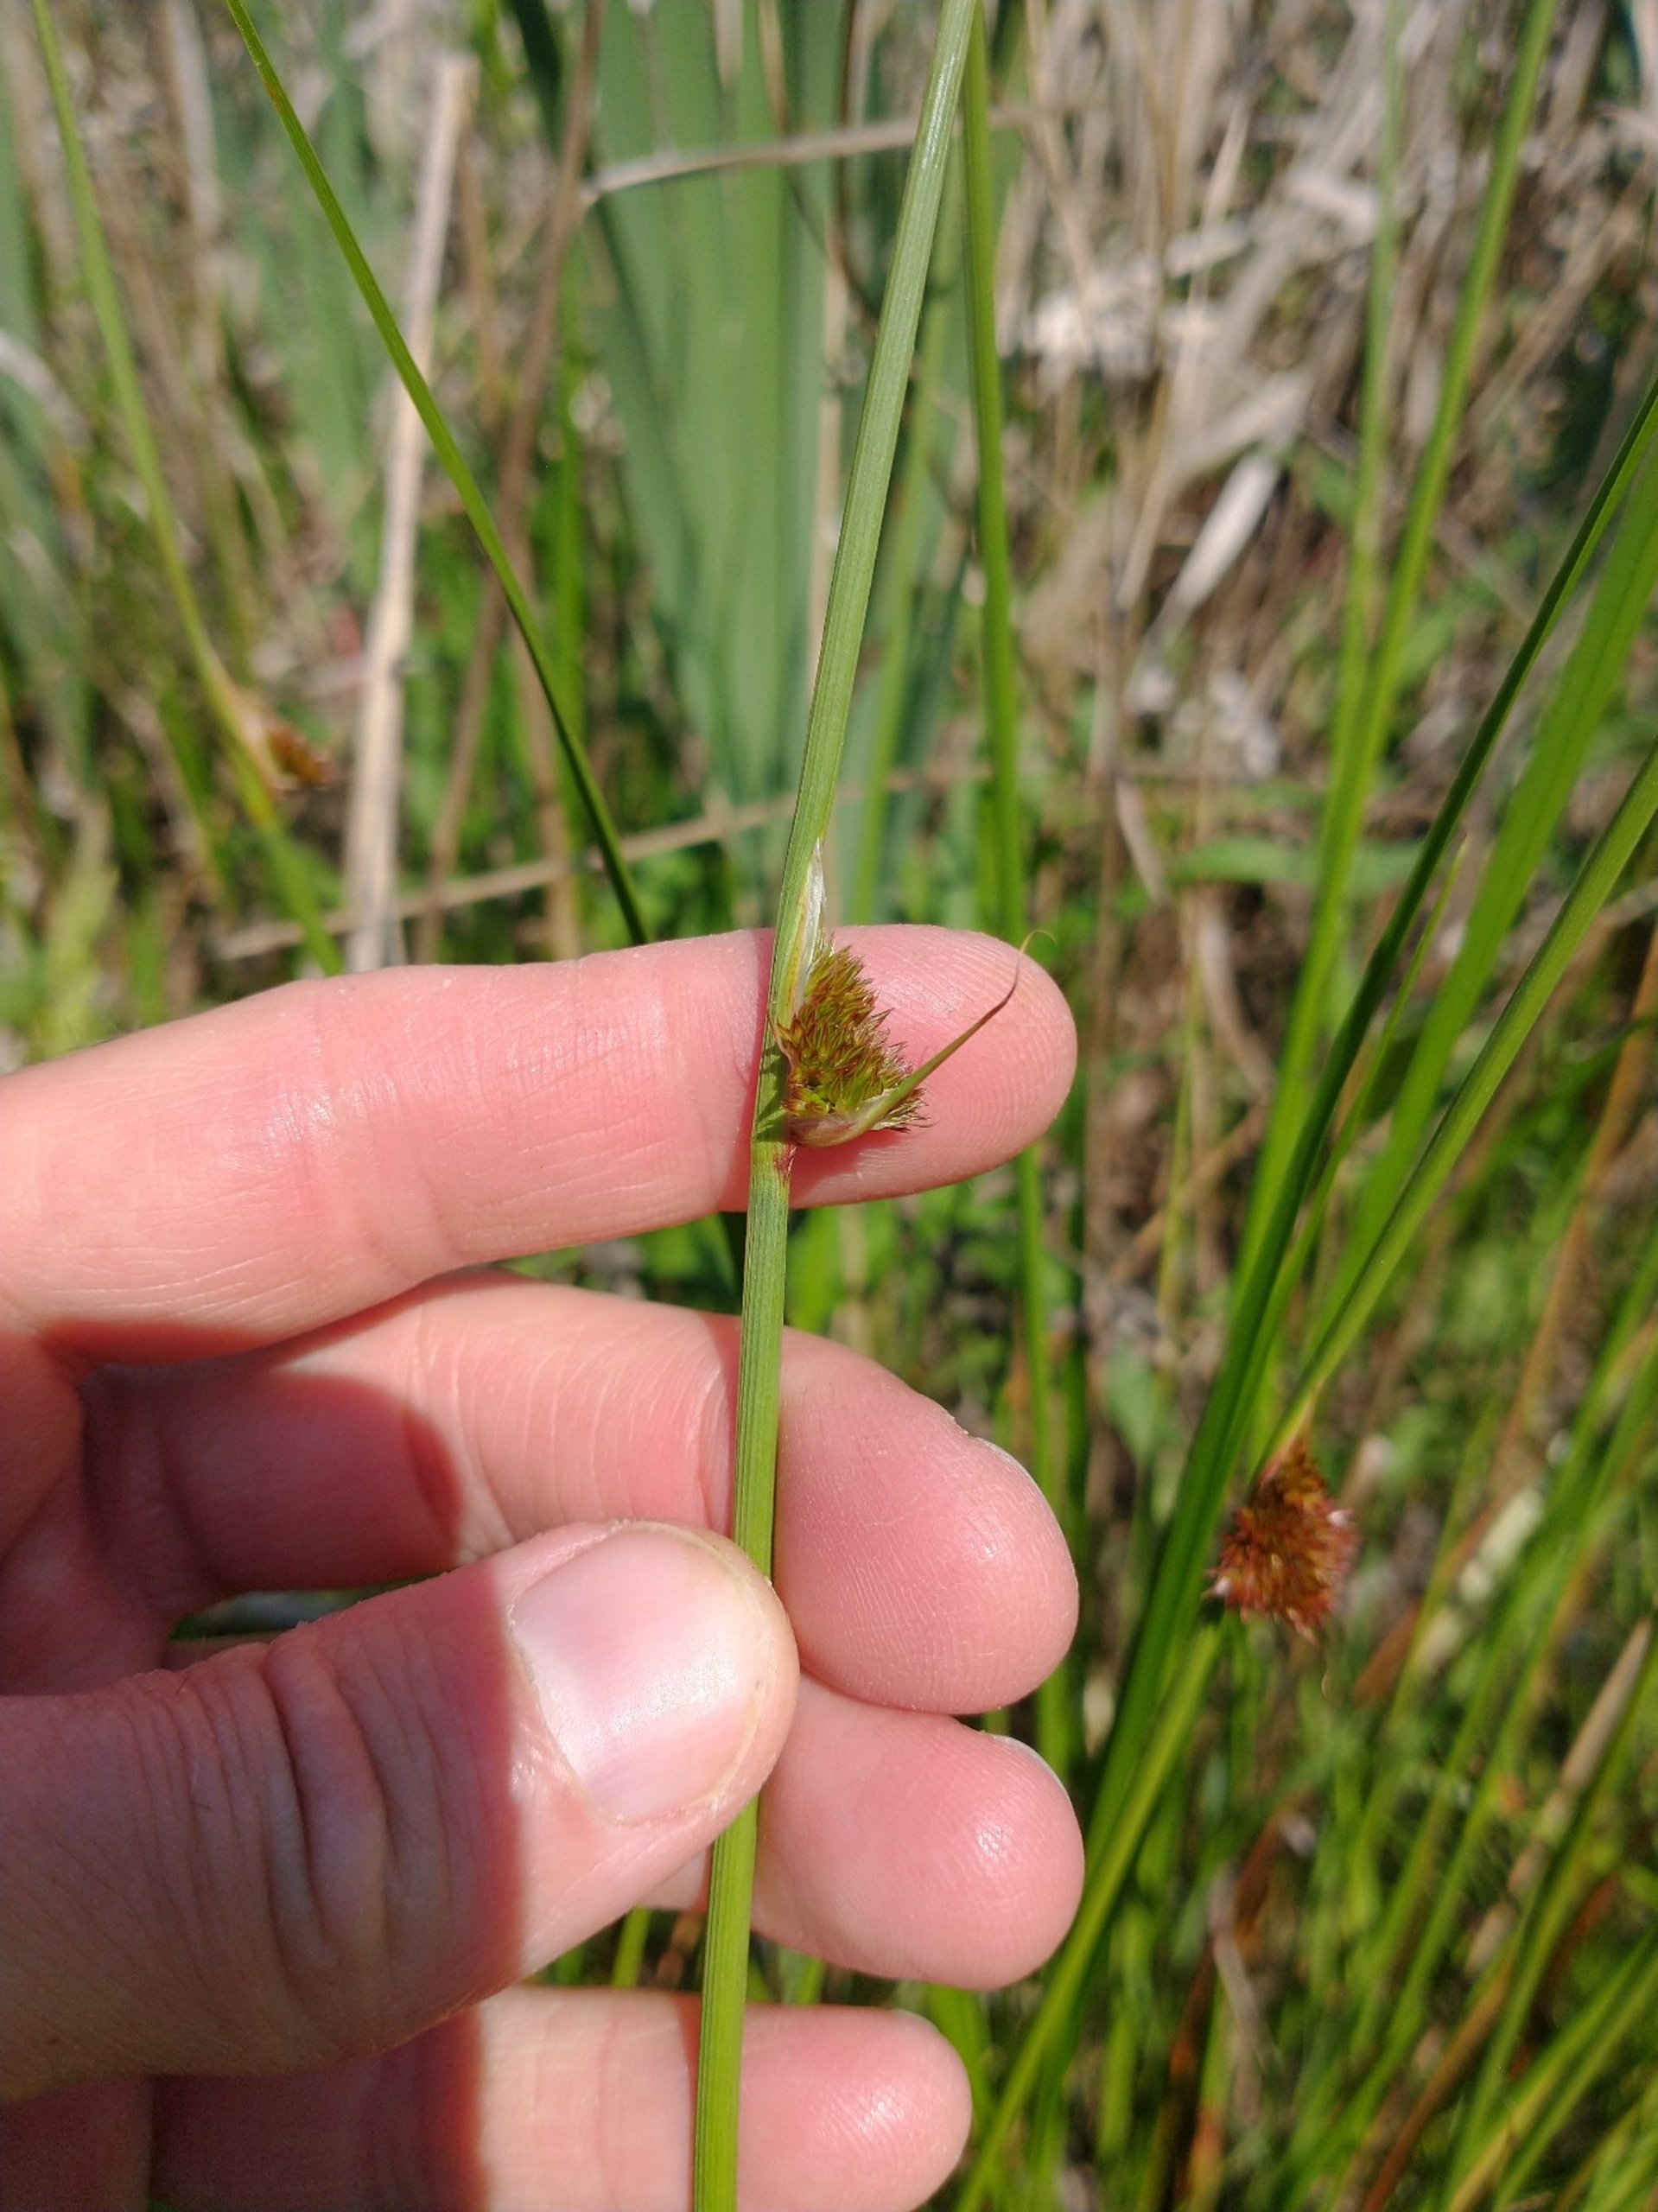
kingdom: Plantae
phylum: Tracheophyta
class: Liliopsida
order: Poales
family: Juncaceae
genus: Juncus
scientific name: Juncus conglomeratus
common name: Knop-siv
